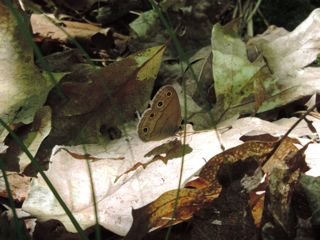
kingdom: Animalia
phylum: Arthropoda
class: Insecta
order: Lepidoptera
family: Nymphalidae
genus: Euptychia
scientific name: Euptychia cymela
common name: Little Wood Satyr
